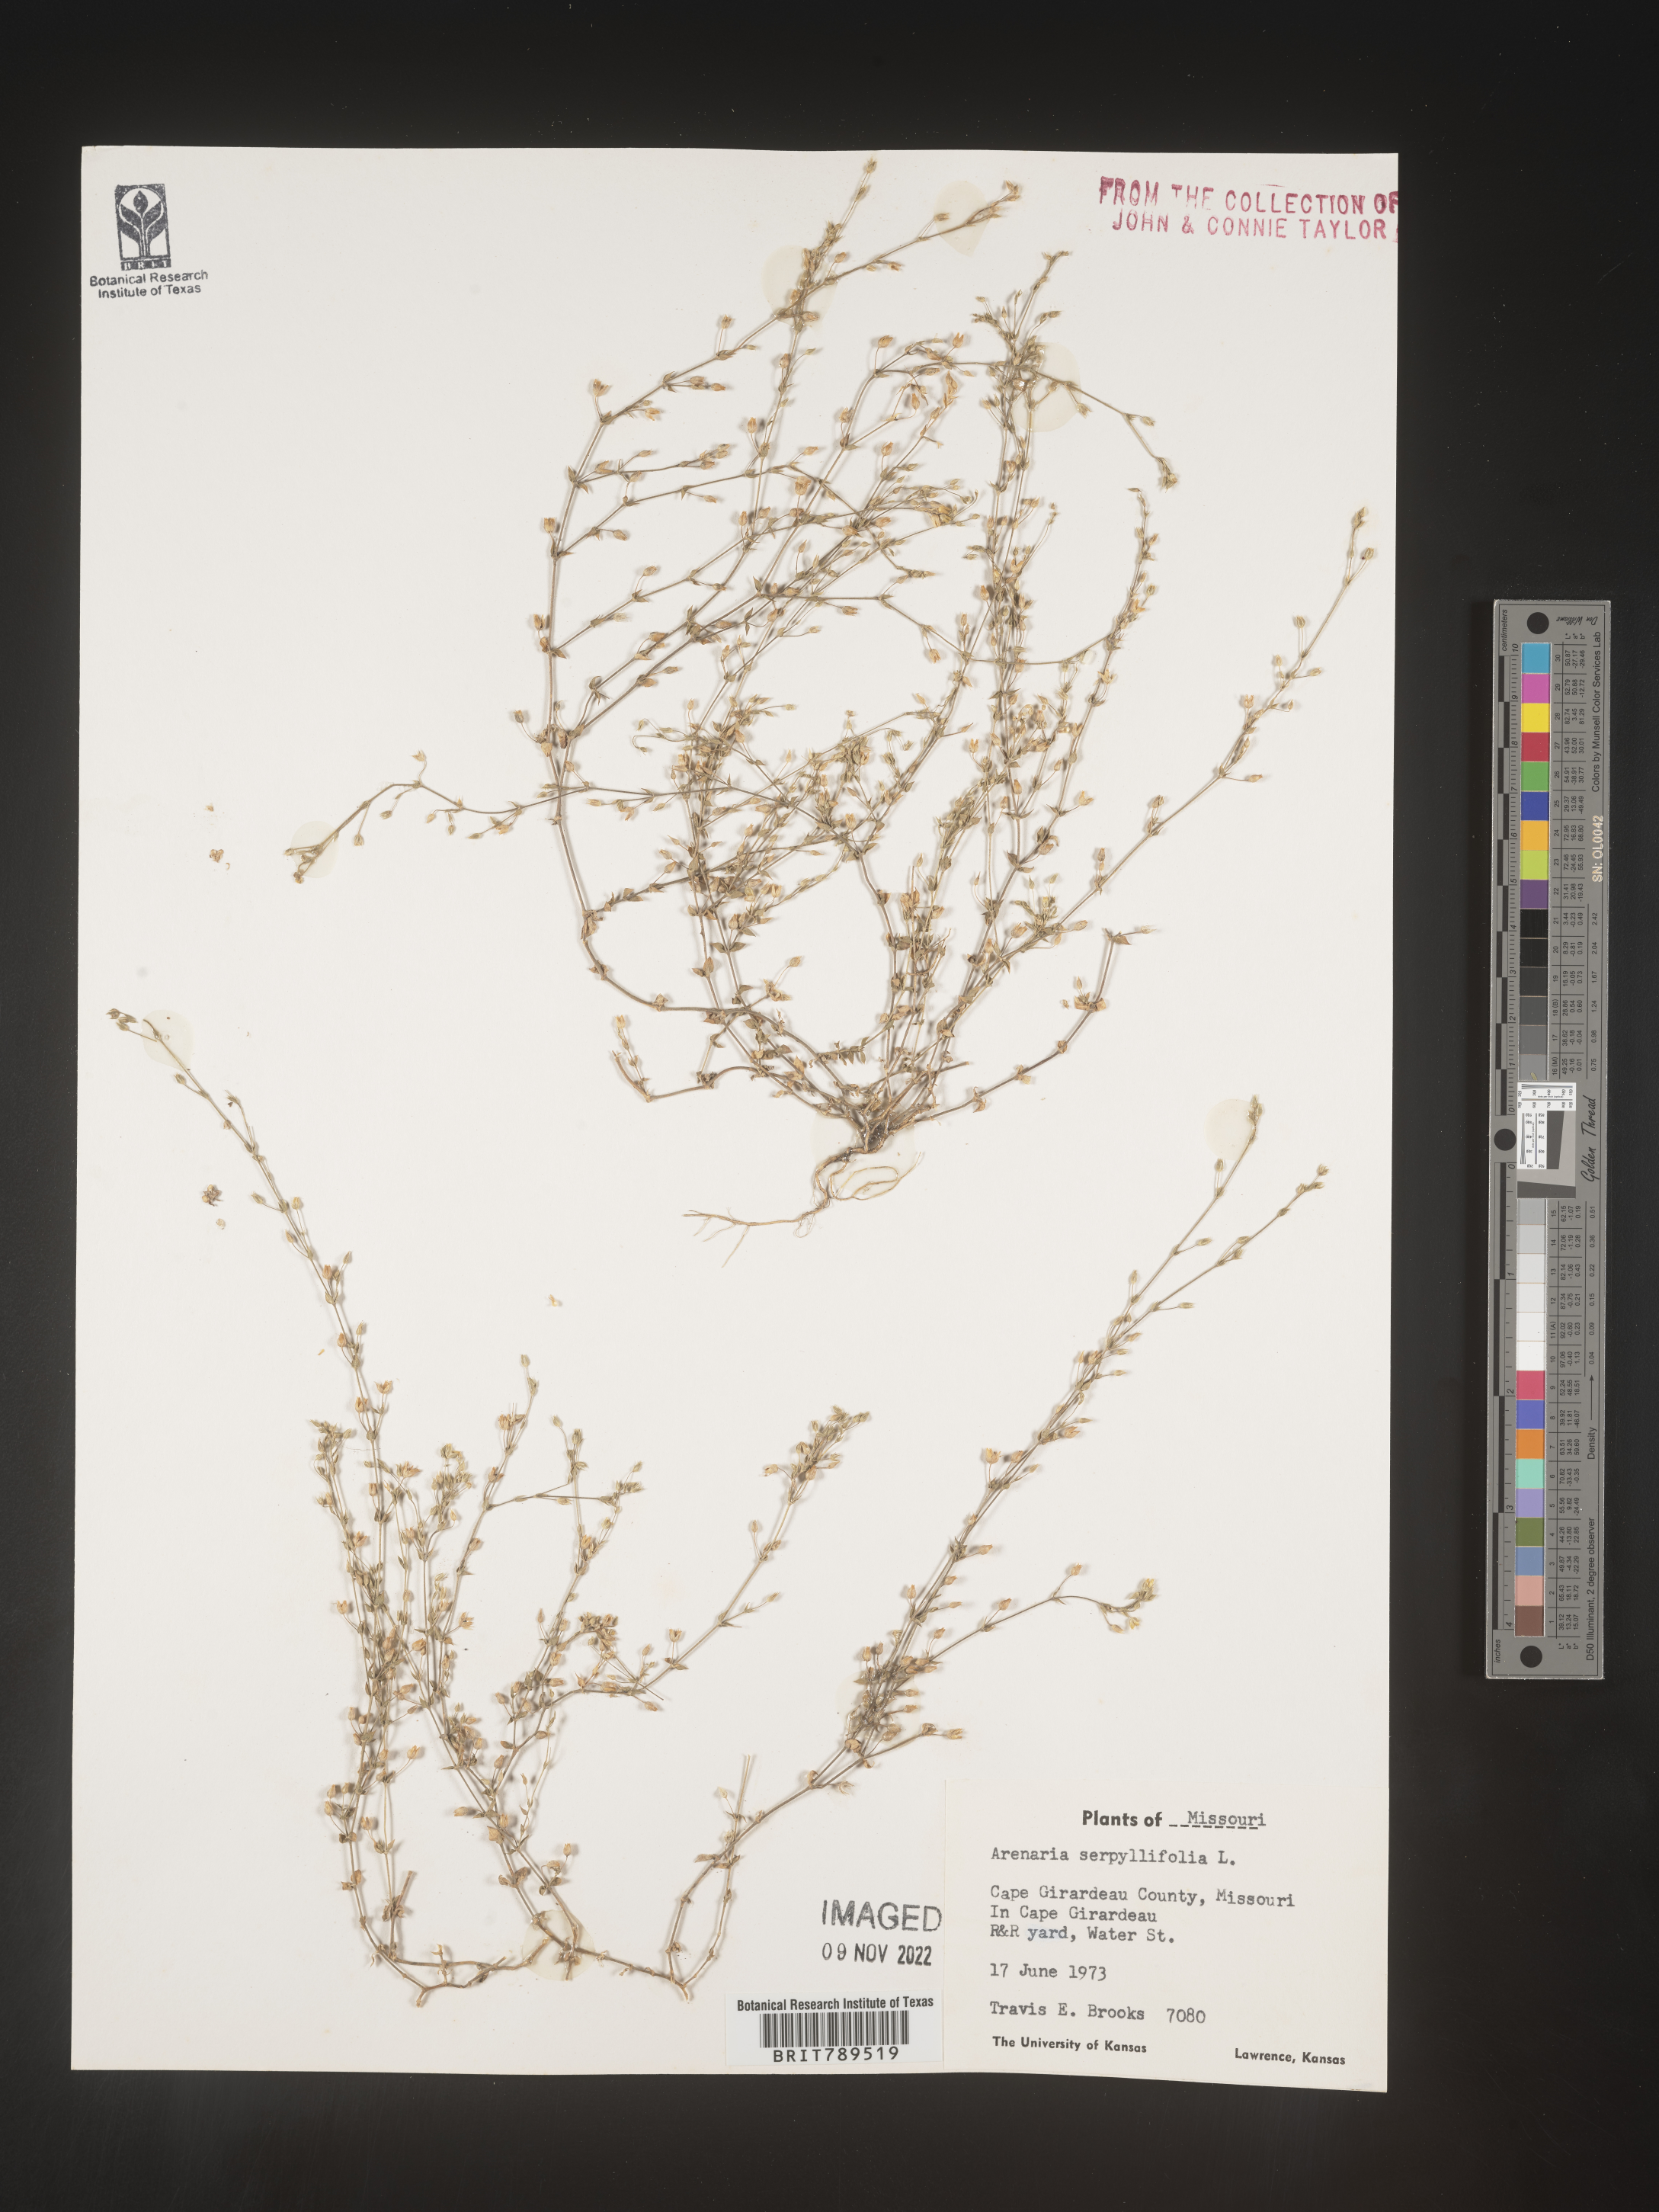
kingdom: Plantae
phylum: Tracheophyta
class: Magnoliopsida
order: Caryophyllales
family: Caryophyllaceae
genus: Arenaria
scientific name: Arenaria serpyllifolia
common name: Thyme-leaved sandwort
